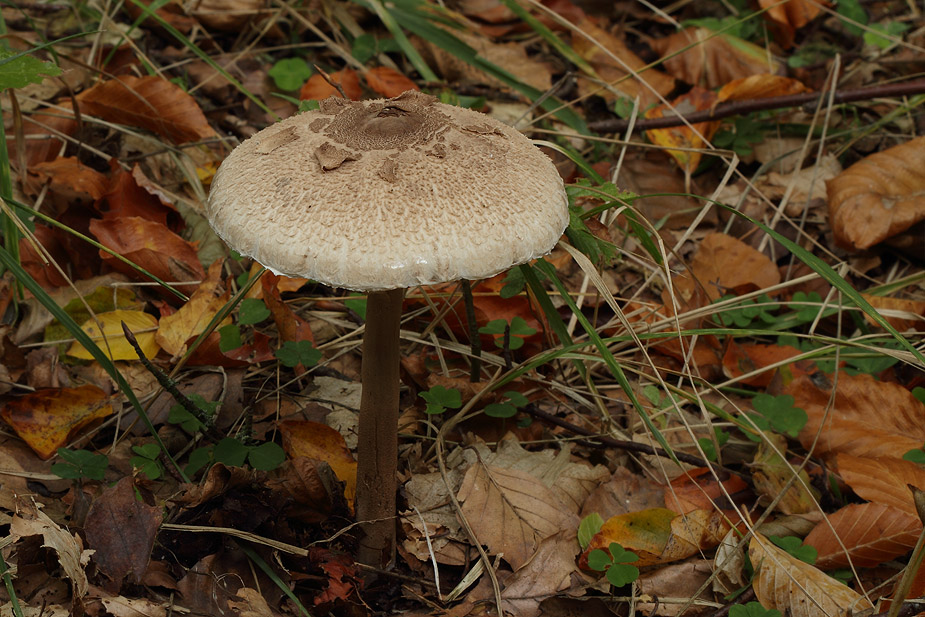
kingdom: Fungi
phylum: Basidiomycota
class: Agaricomycetes
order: Agaricales
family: Agaricaceae
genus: Macrolepiota
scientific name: Macrolepiota fuliginosa
